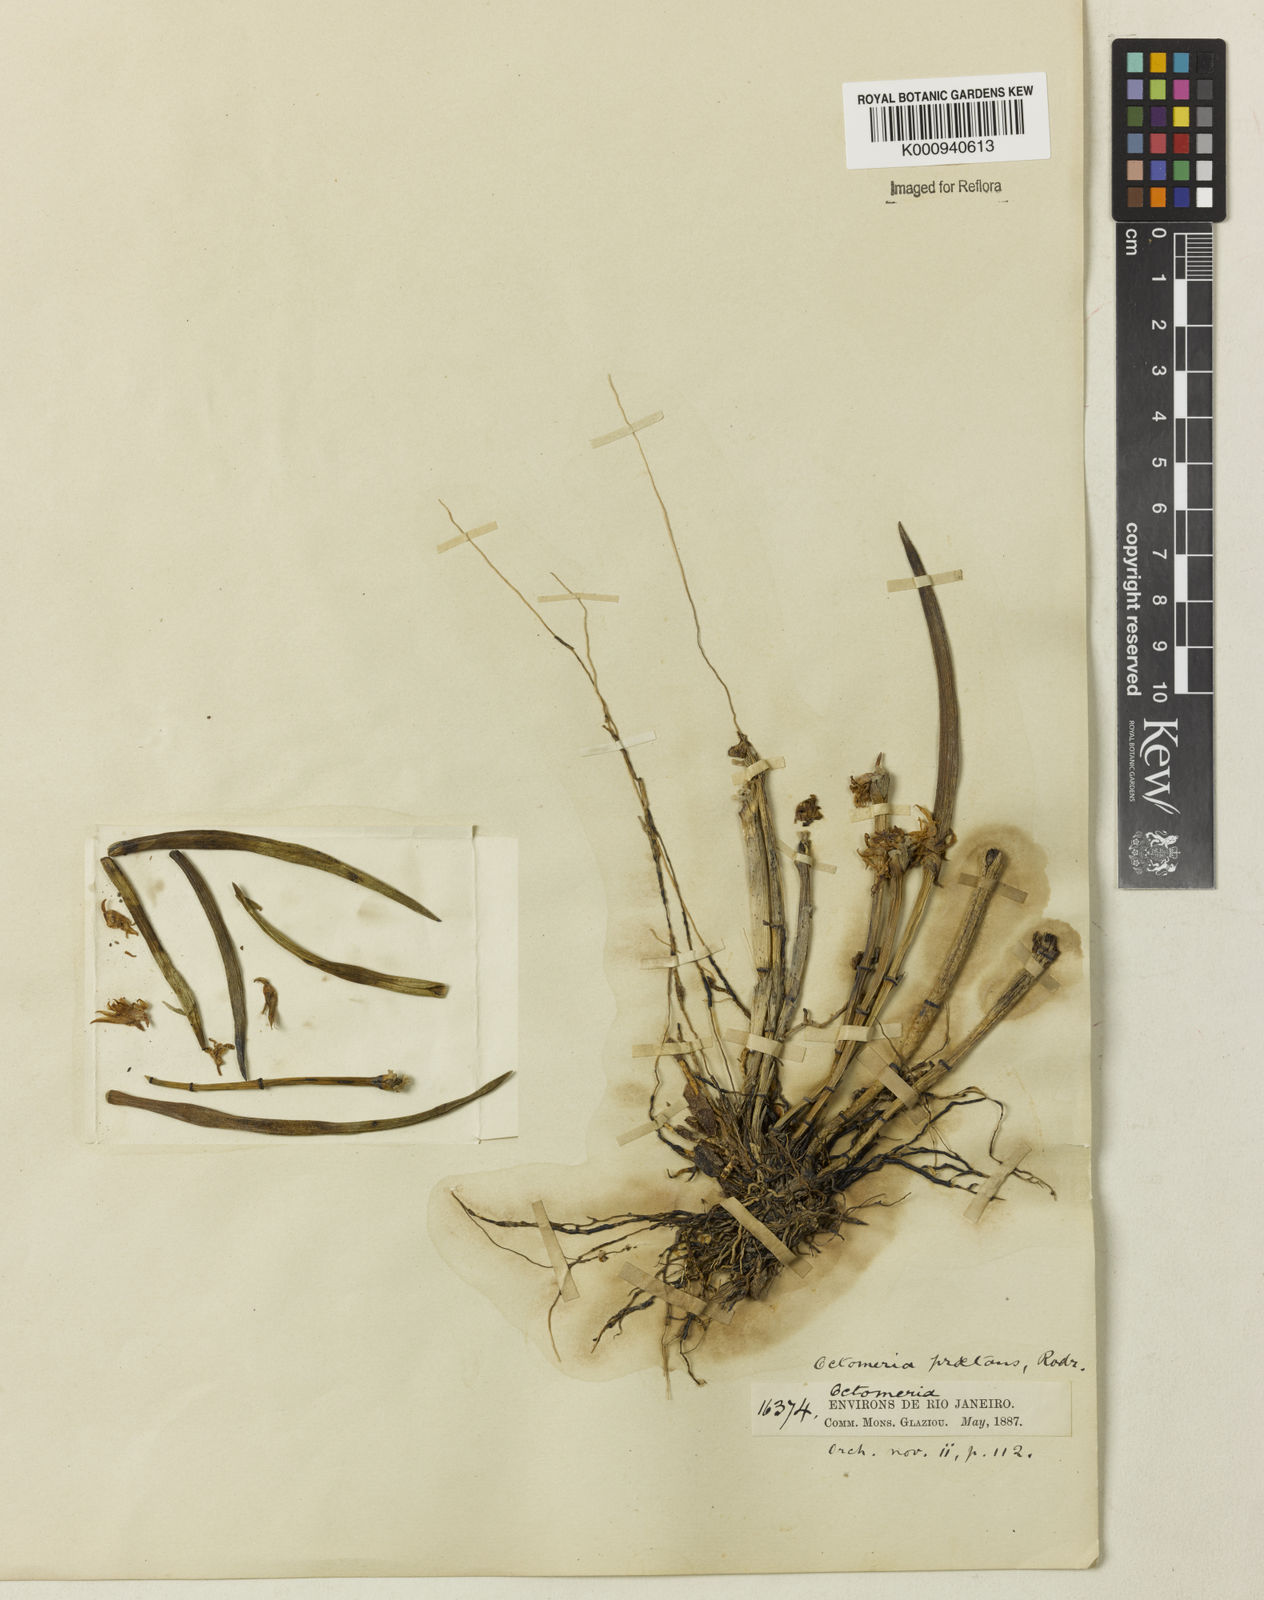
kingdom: Plantae
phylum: Tracheophyta
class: Liliopsida
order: Asparagales
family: Orchidaceae
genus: Octomeria
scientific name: Octomeria praestans
